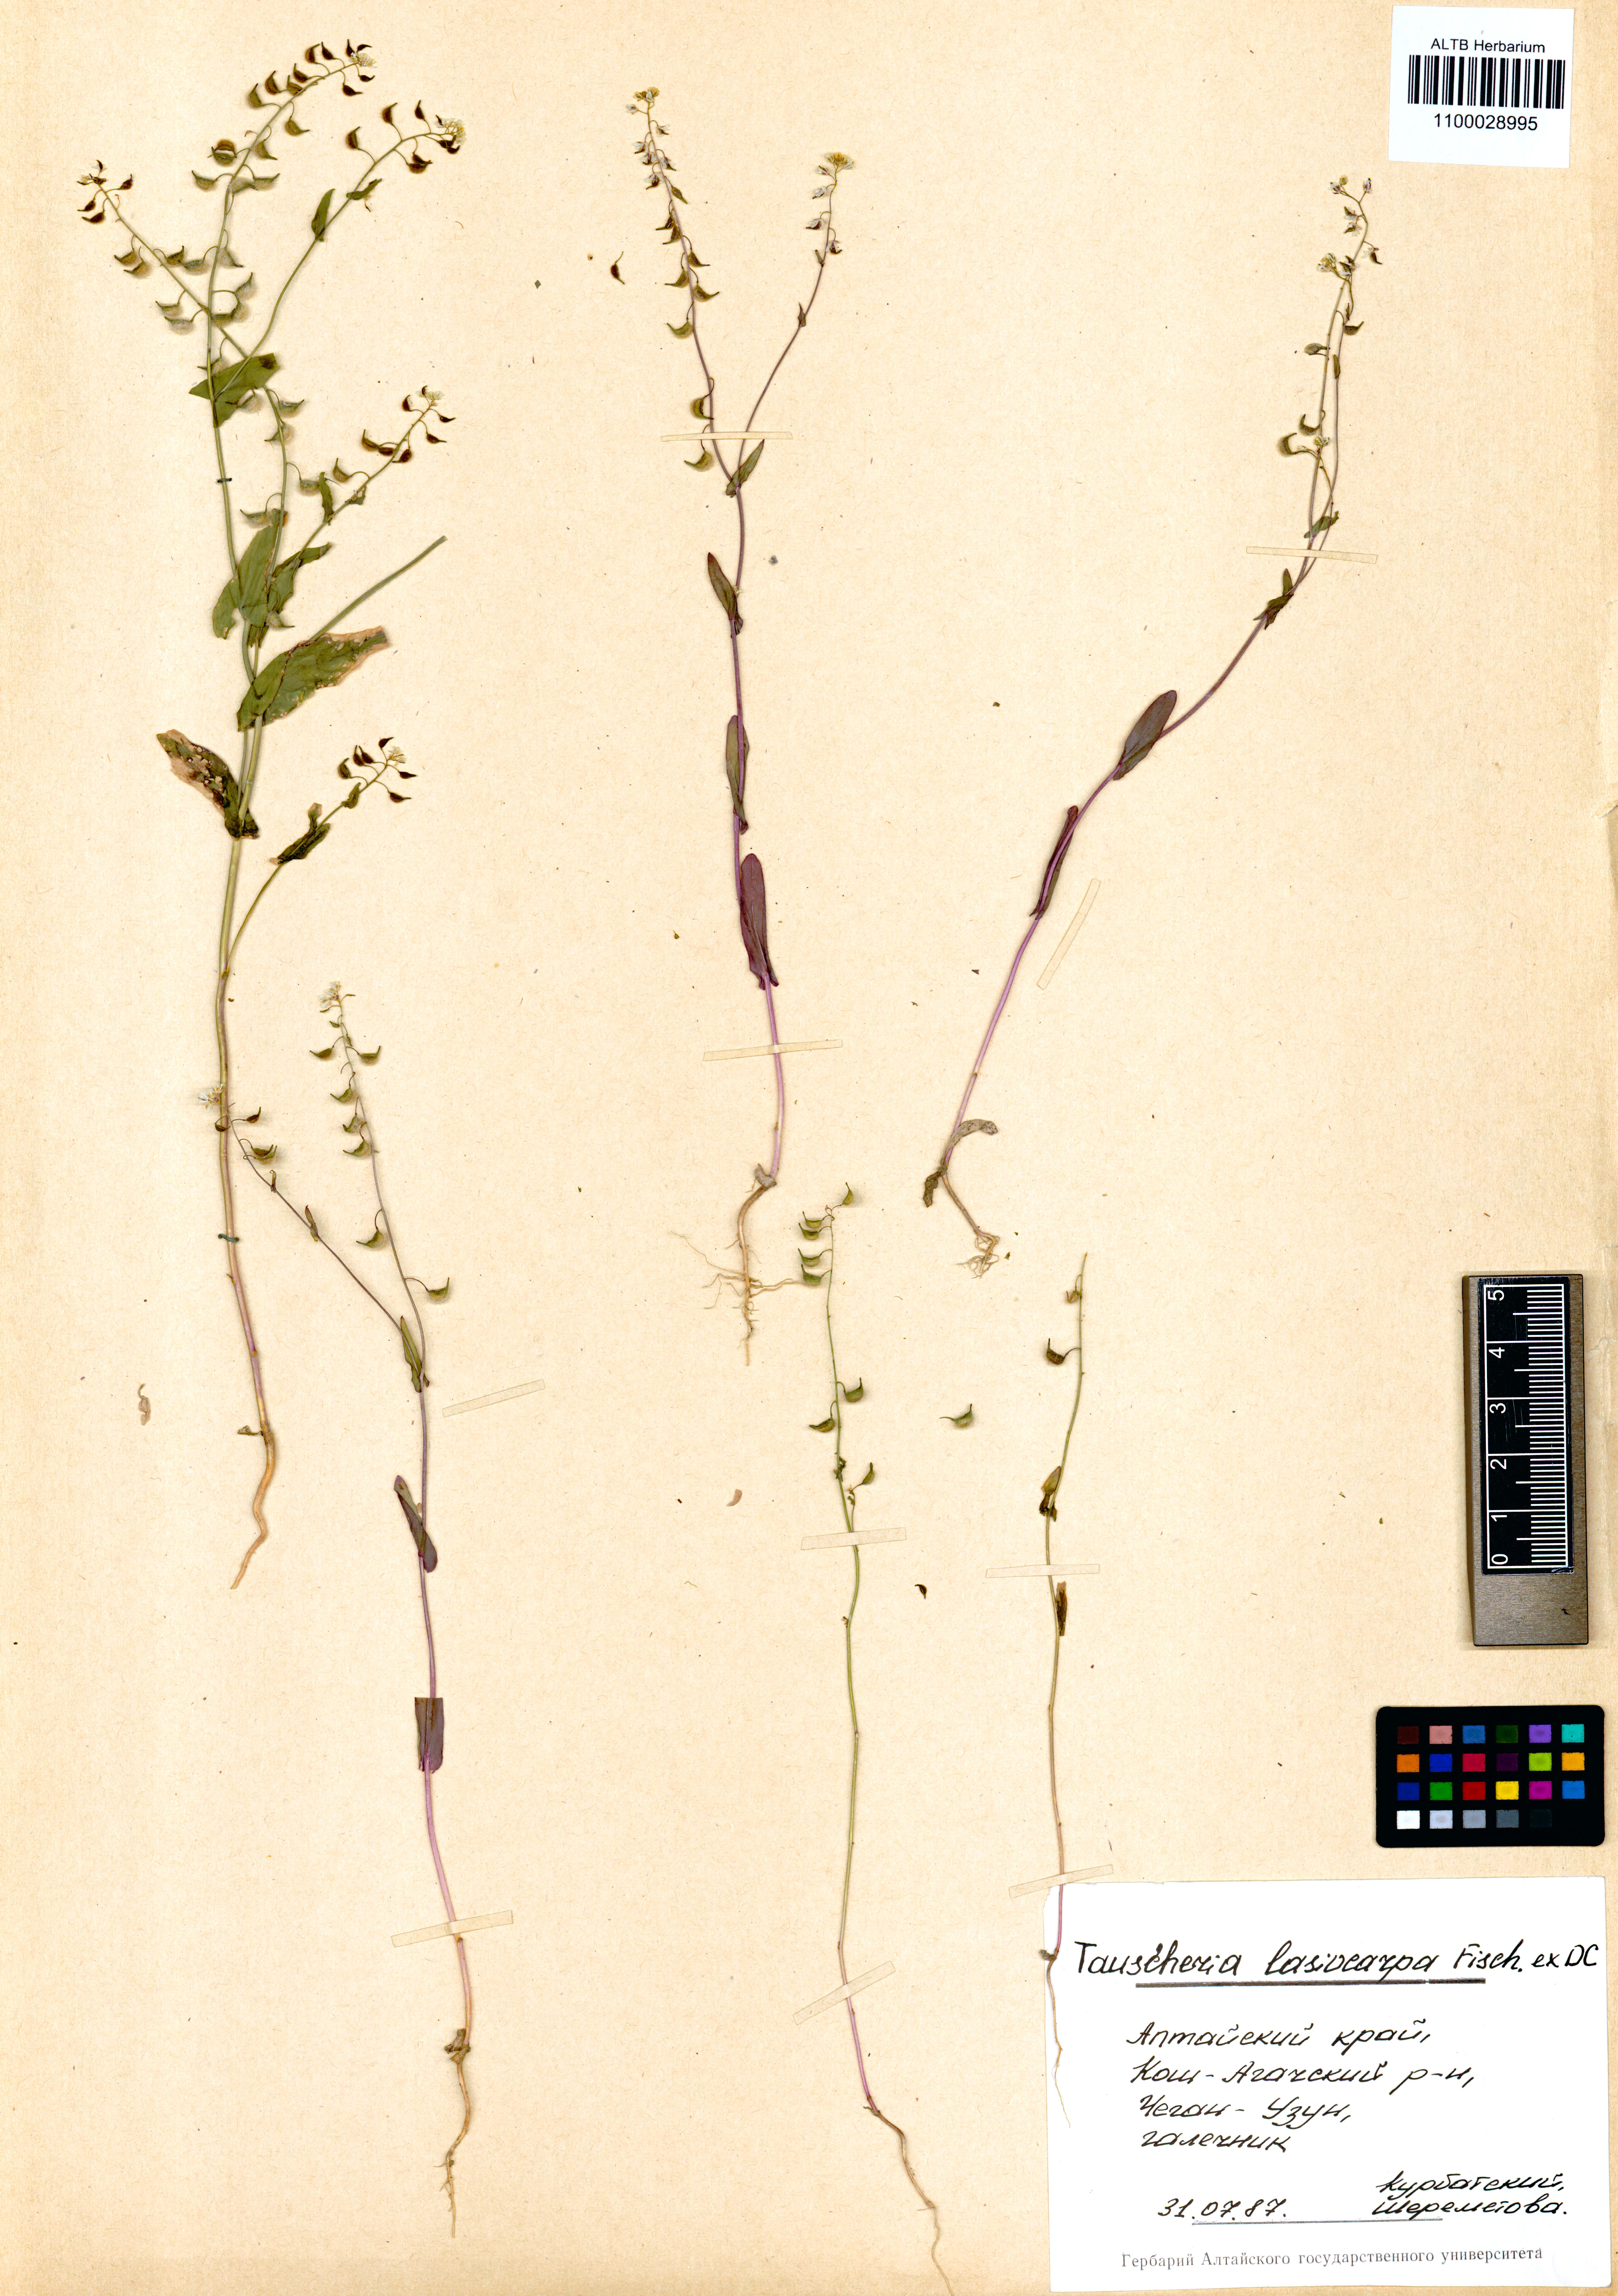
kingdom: Plantae
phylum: Tracheophyta
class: Magnoliopsida
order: Brassicales
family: Brassicaceae
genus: Tauscheria
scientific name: Tauscheria lasiocarpa
